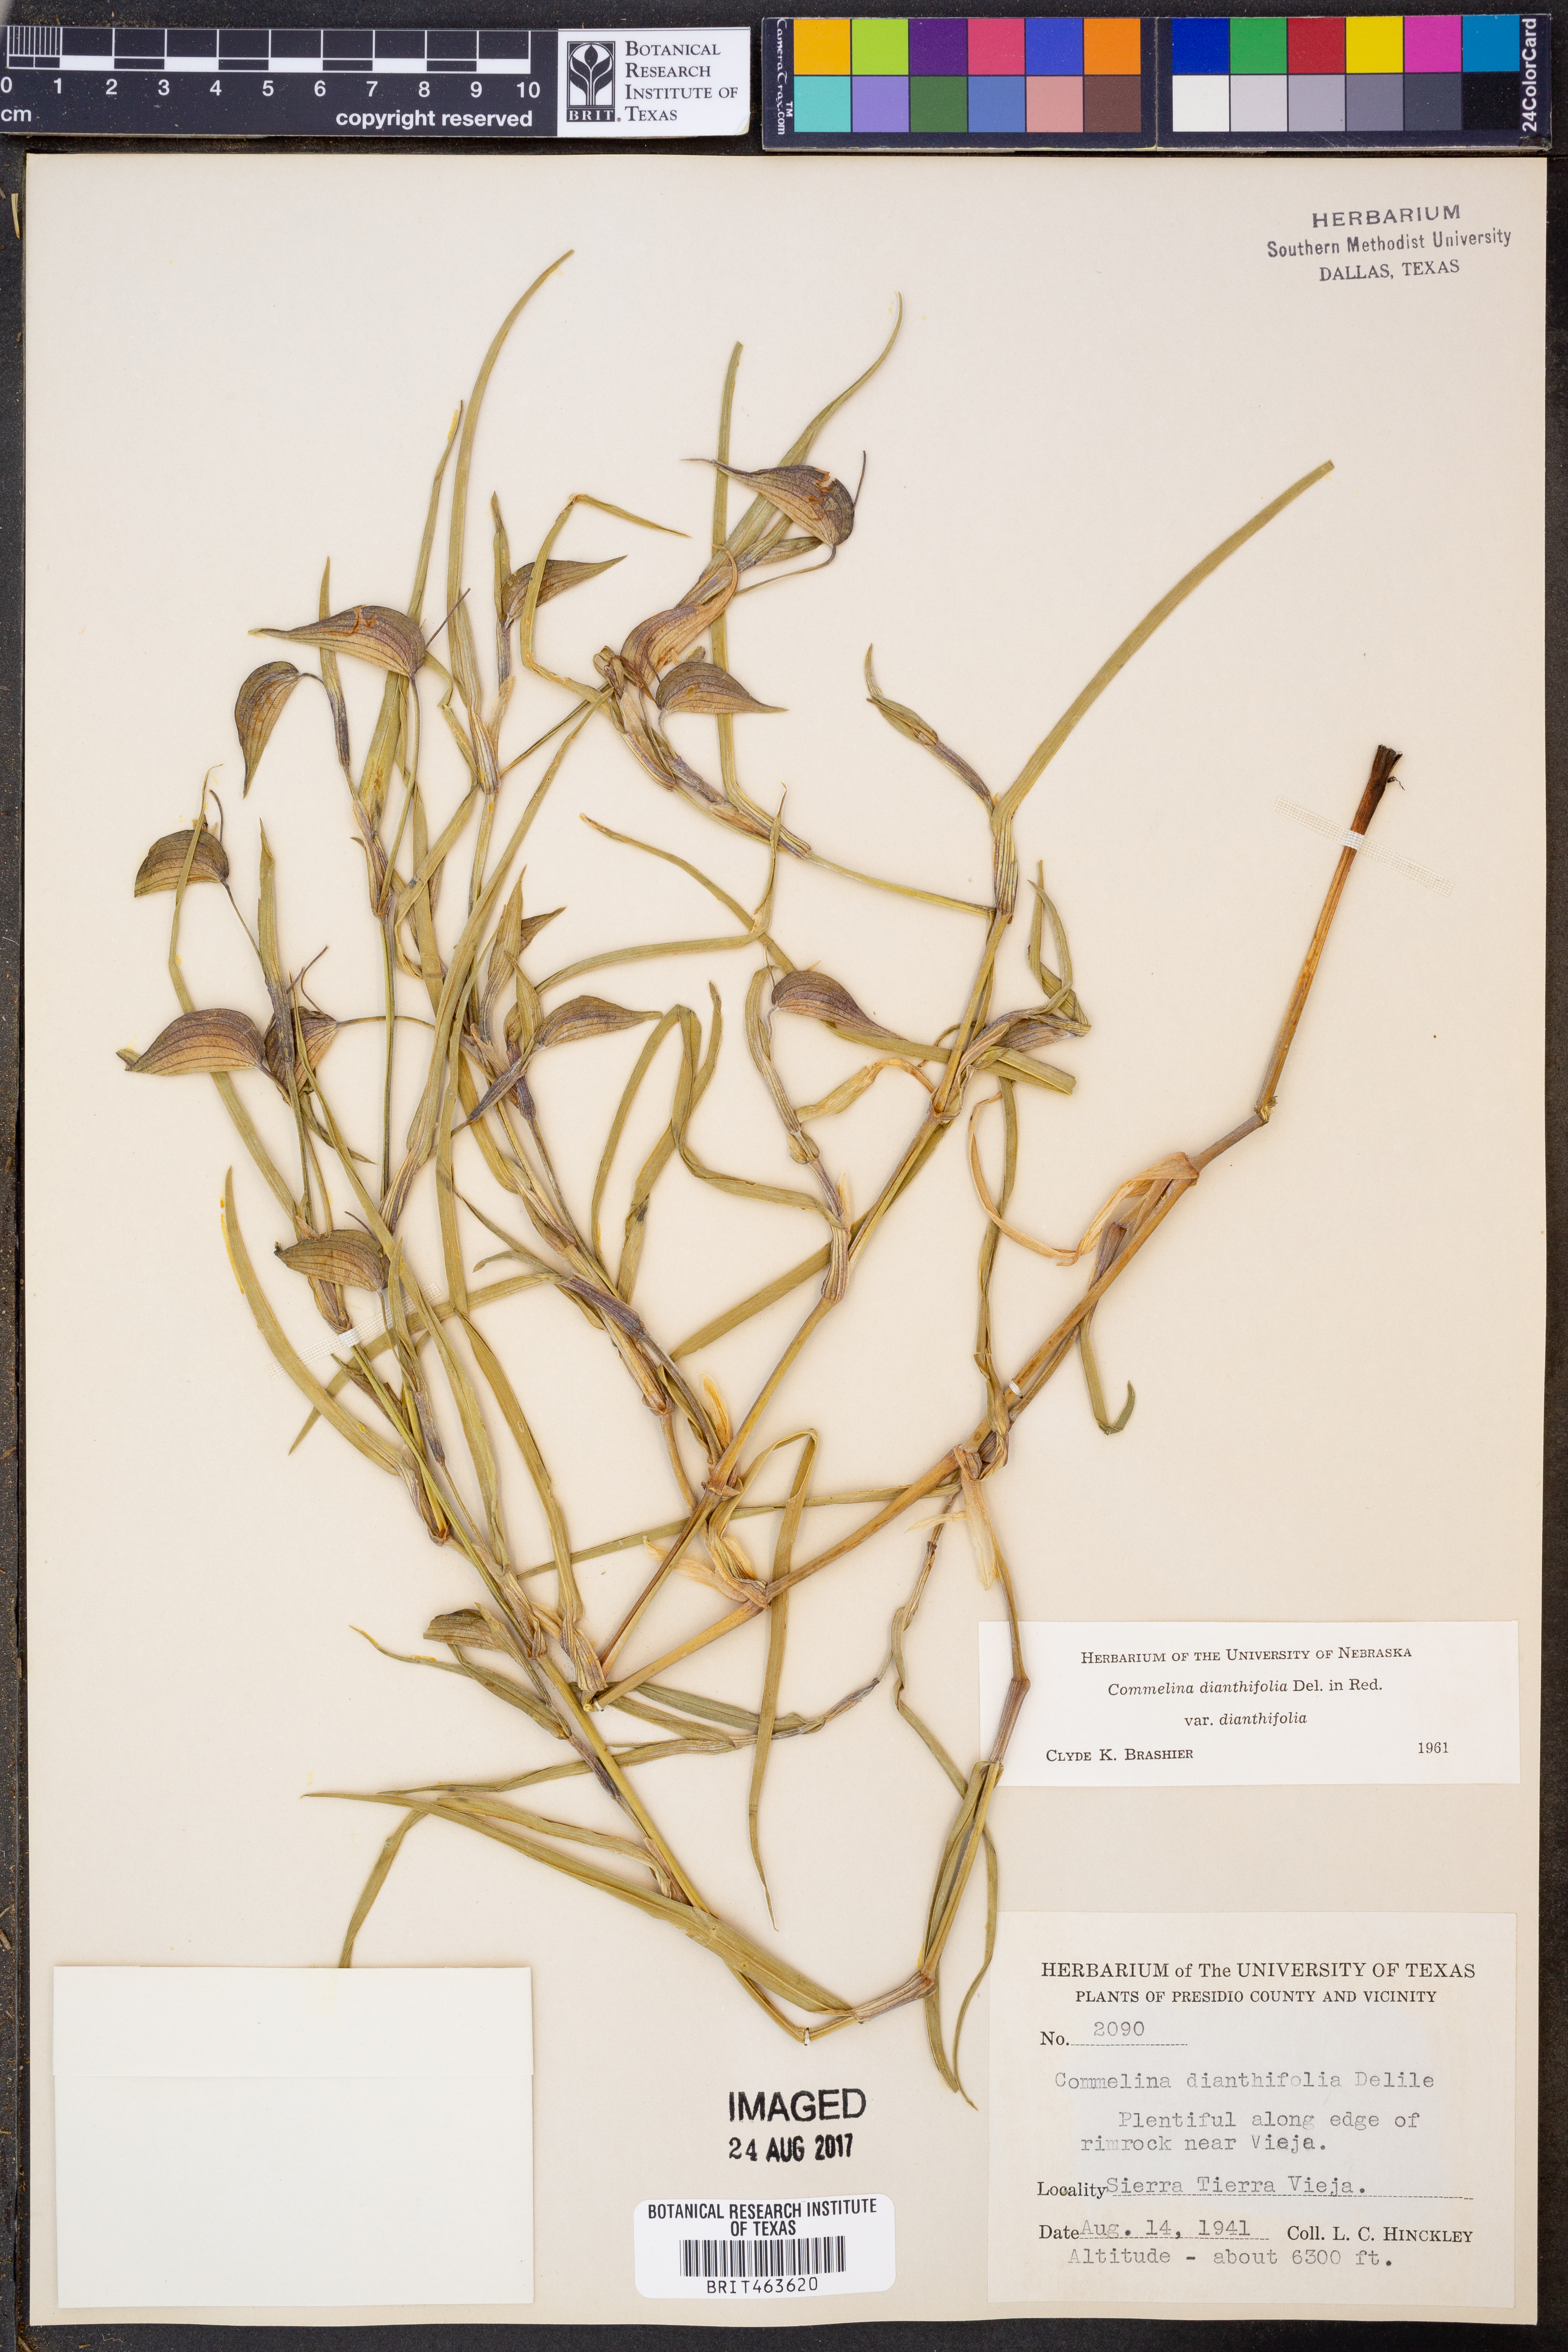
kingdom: Plantae
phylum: Tracheophyta
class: Liliopsida
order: Commelinales
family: Commelinaceae
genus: Commelina
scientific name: Commelina dianthifolia
